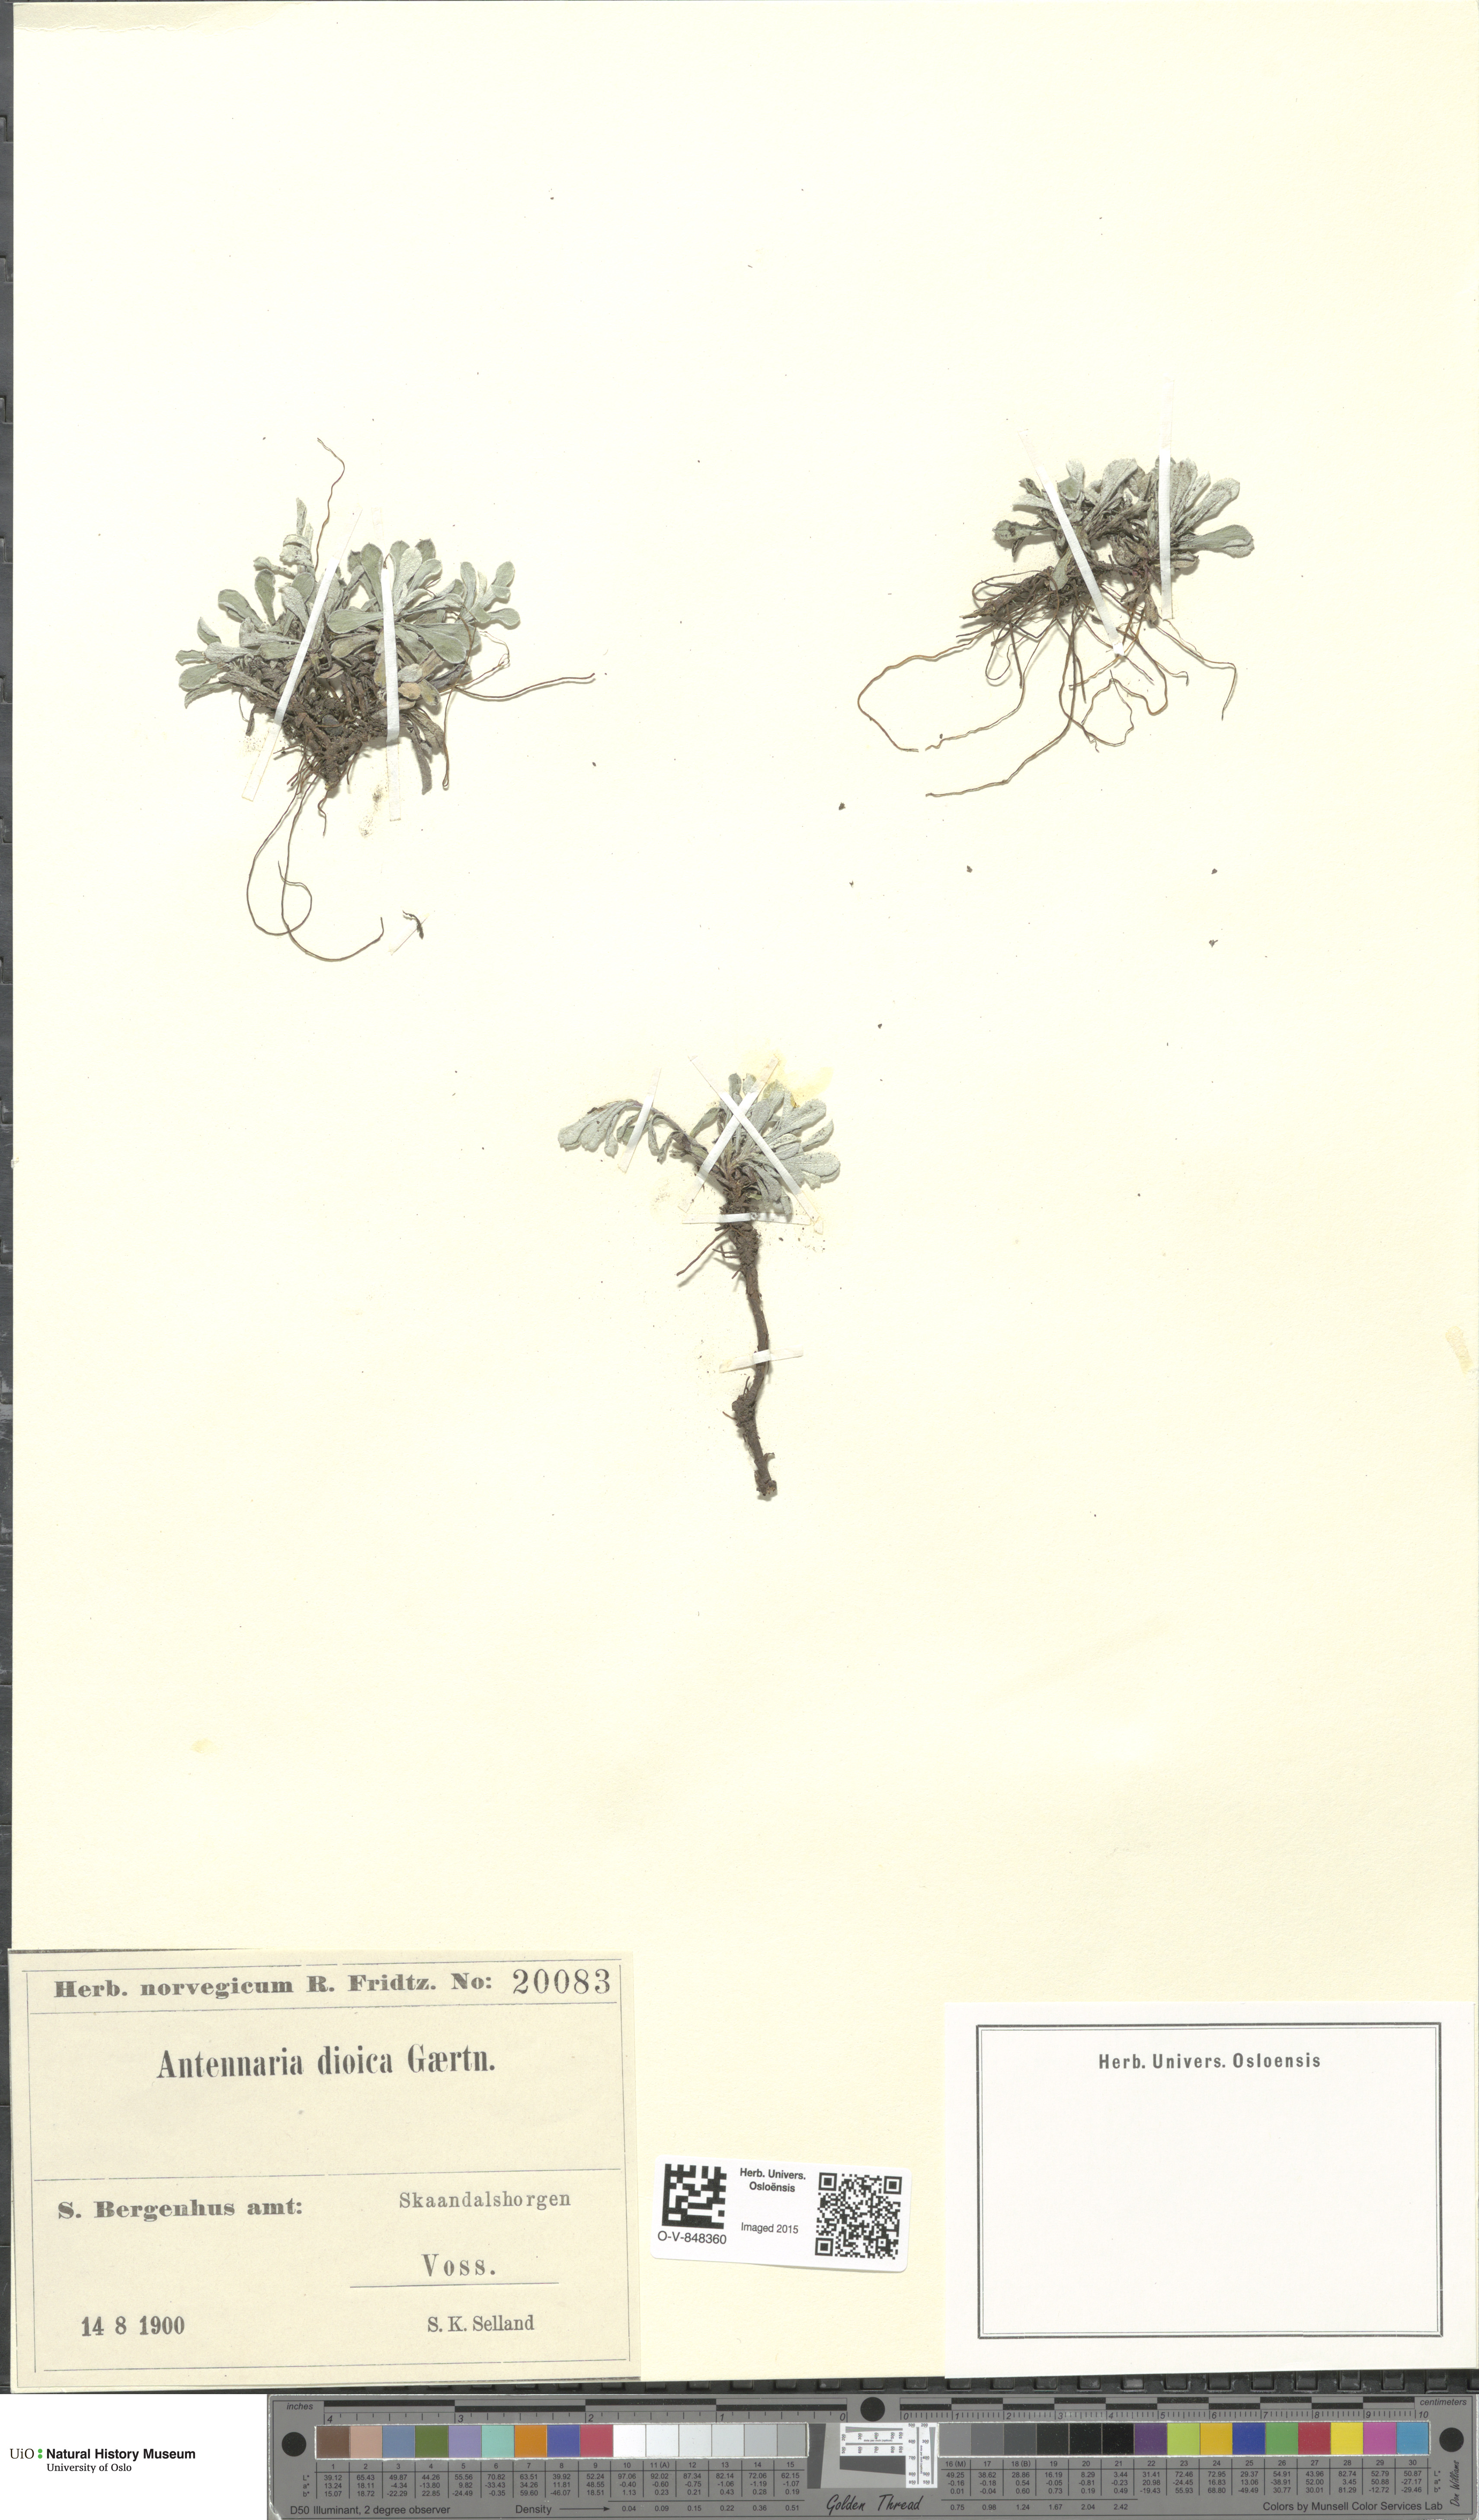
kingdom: Plantae
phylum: Tracheophyta
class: Magnoliopsida
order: Asterales
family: Asteraceae
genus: Antennaria
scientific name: Antennaria dioica
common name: Mountain everlasting
